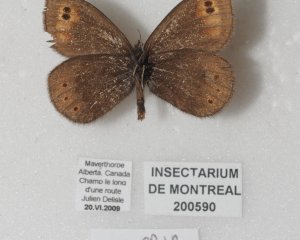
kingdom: Animalia
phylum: Arthropoda
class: Insecta
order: Lepidoptera
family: Nymphalidae
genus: Erebia
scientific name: Erebia epipsodea
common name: Common Alpine
